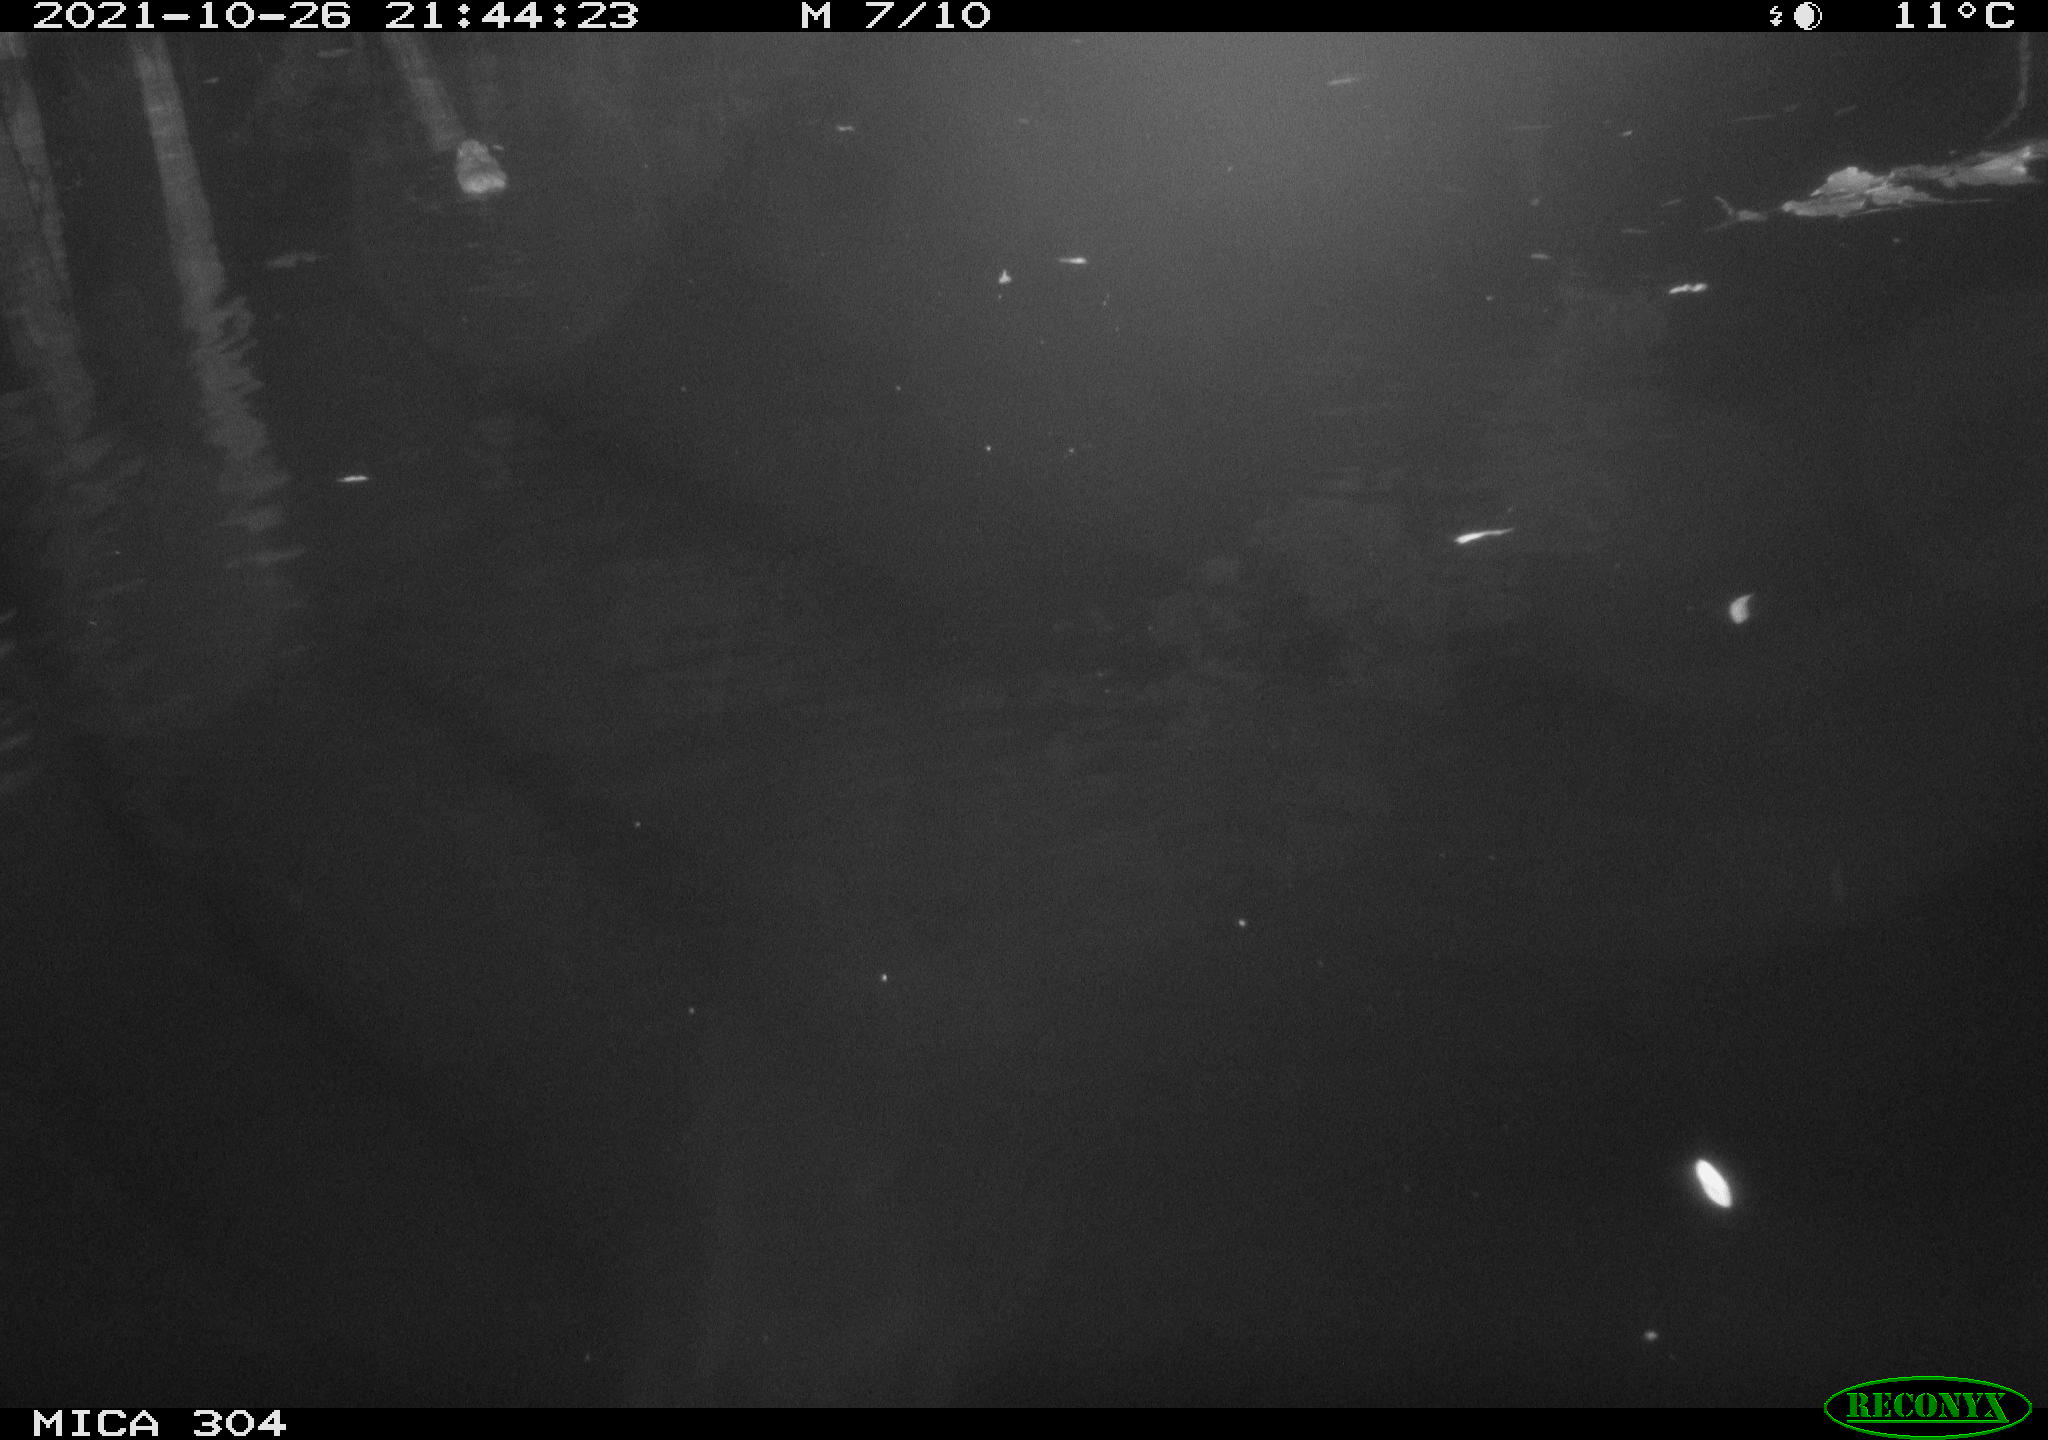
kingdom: Animalia
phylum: Chordata
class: Mammalia
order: Rodentia
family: Muridae
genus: Rattus
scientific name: Rattus norvegicus
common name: Brown rat
